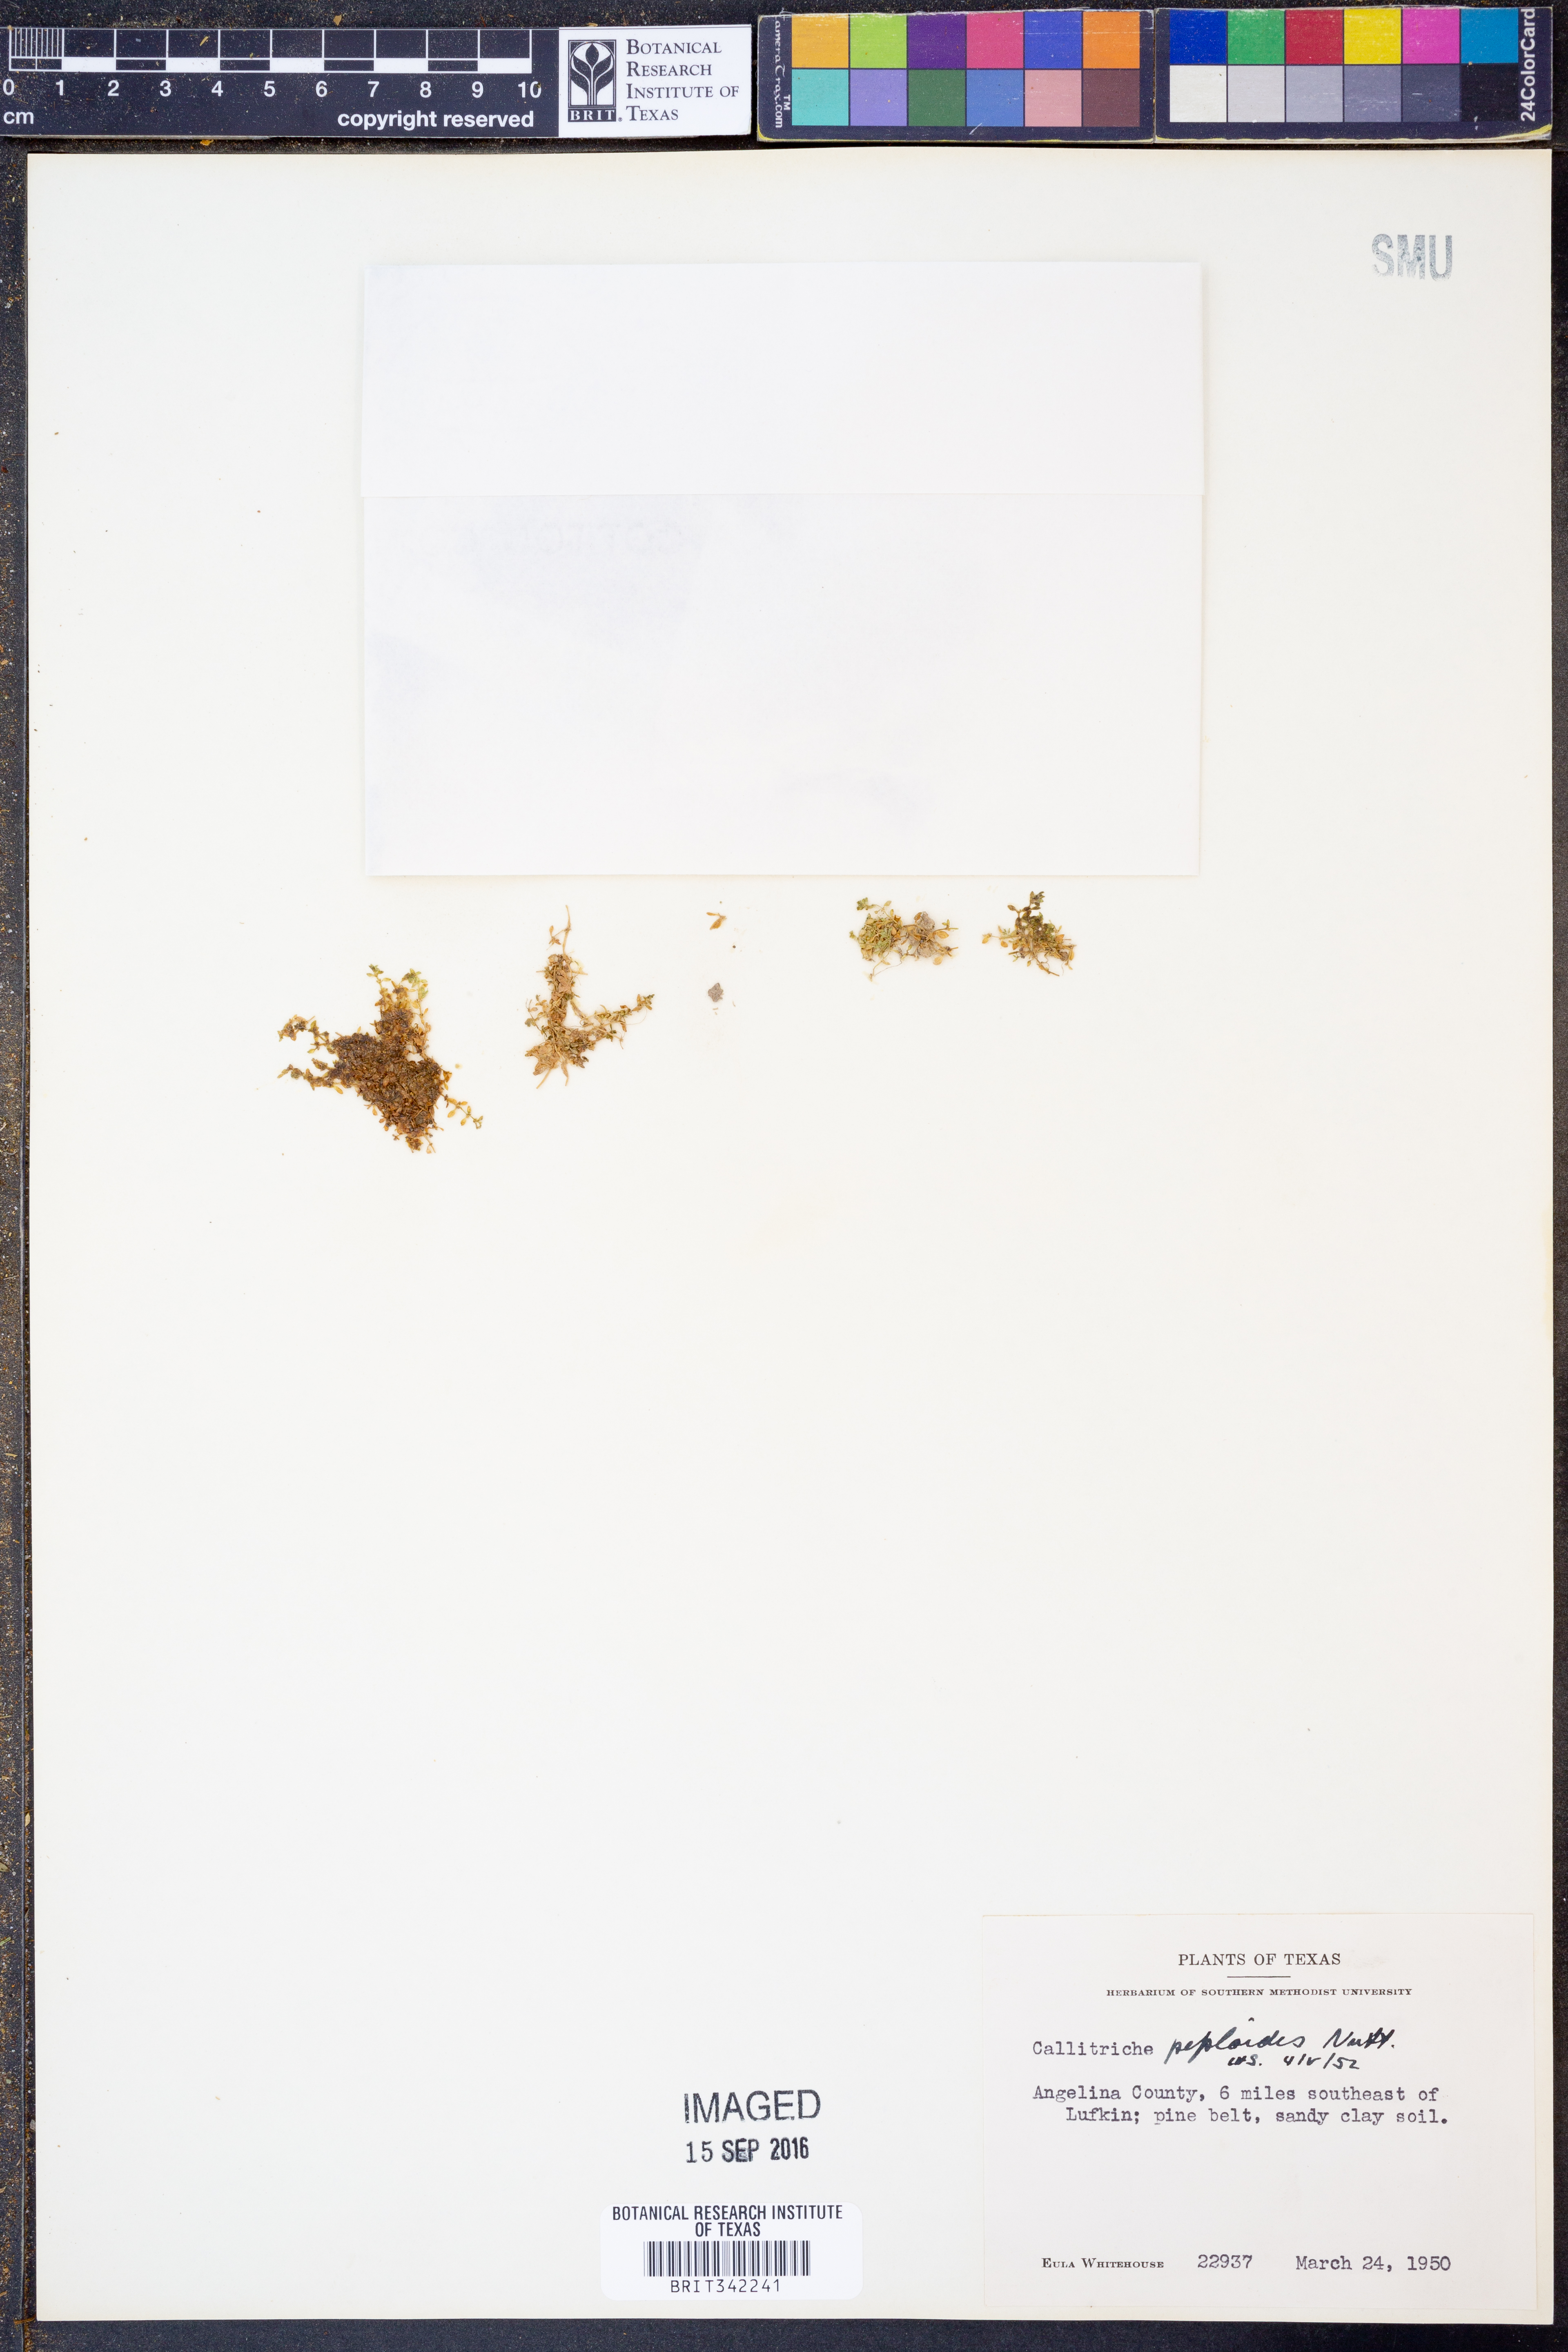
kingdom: Plantae
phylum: Tracheophyta
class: Magnoliopsida
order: Lamiales
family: Plantaginaceae
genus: Callitriche
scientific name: Callitriche peploides
